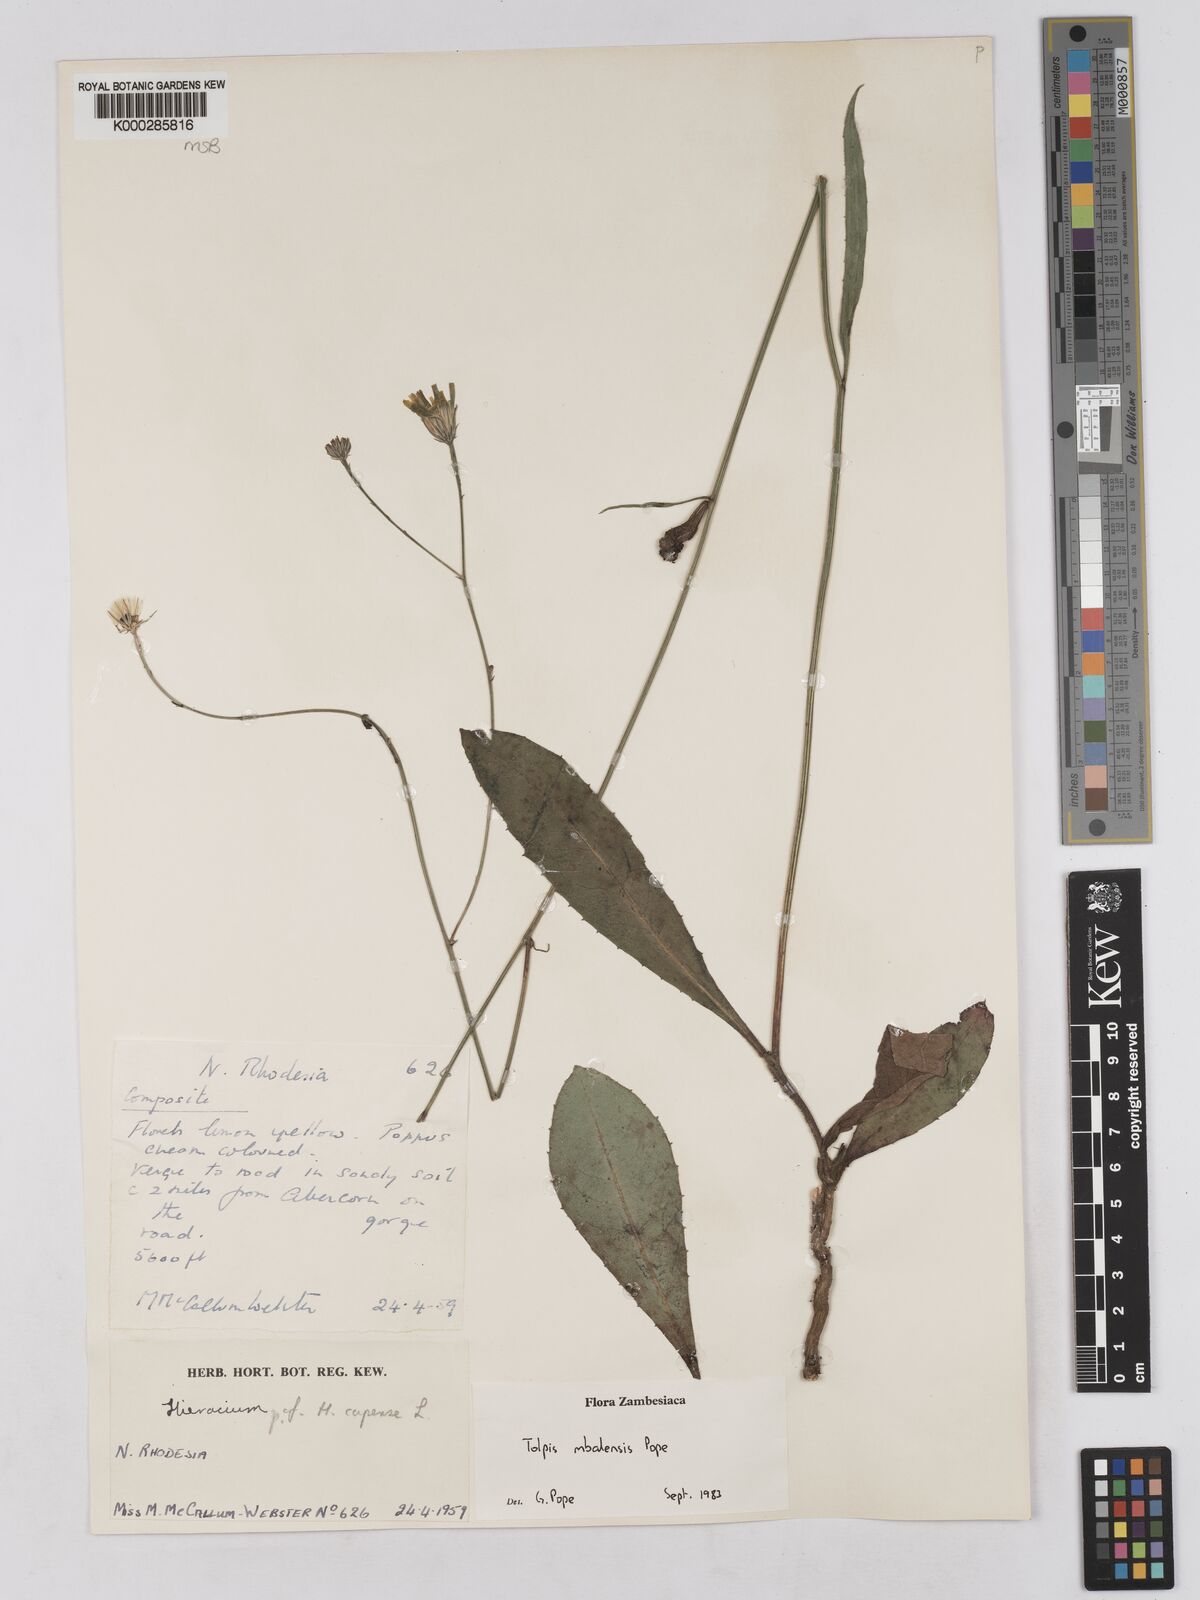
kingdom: Plantae
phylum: Tracheophyta
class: Magnoliopsida
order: Asterales
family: Asteraceae
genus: Tolpis
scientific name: Tolpis mbalensis
